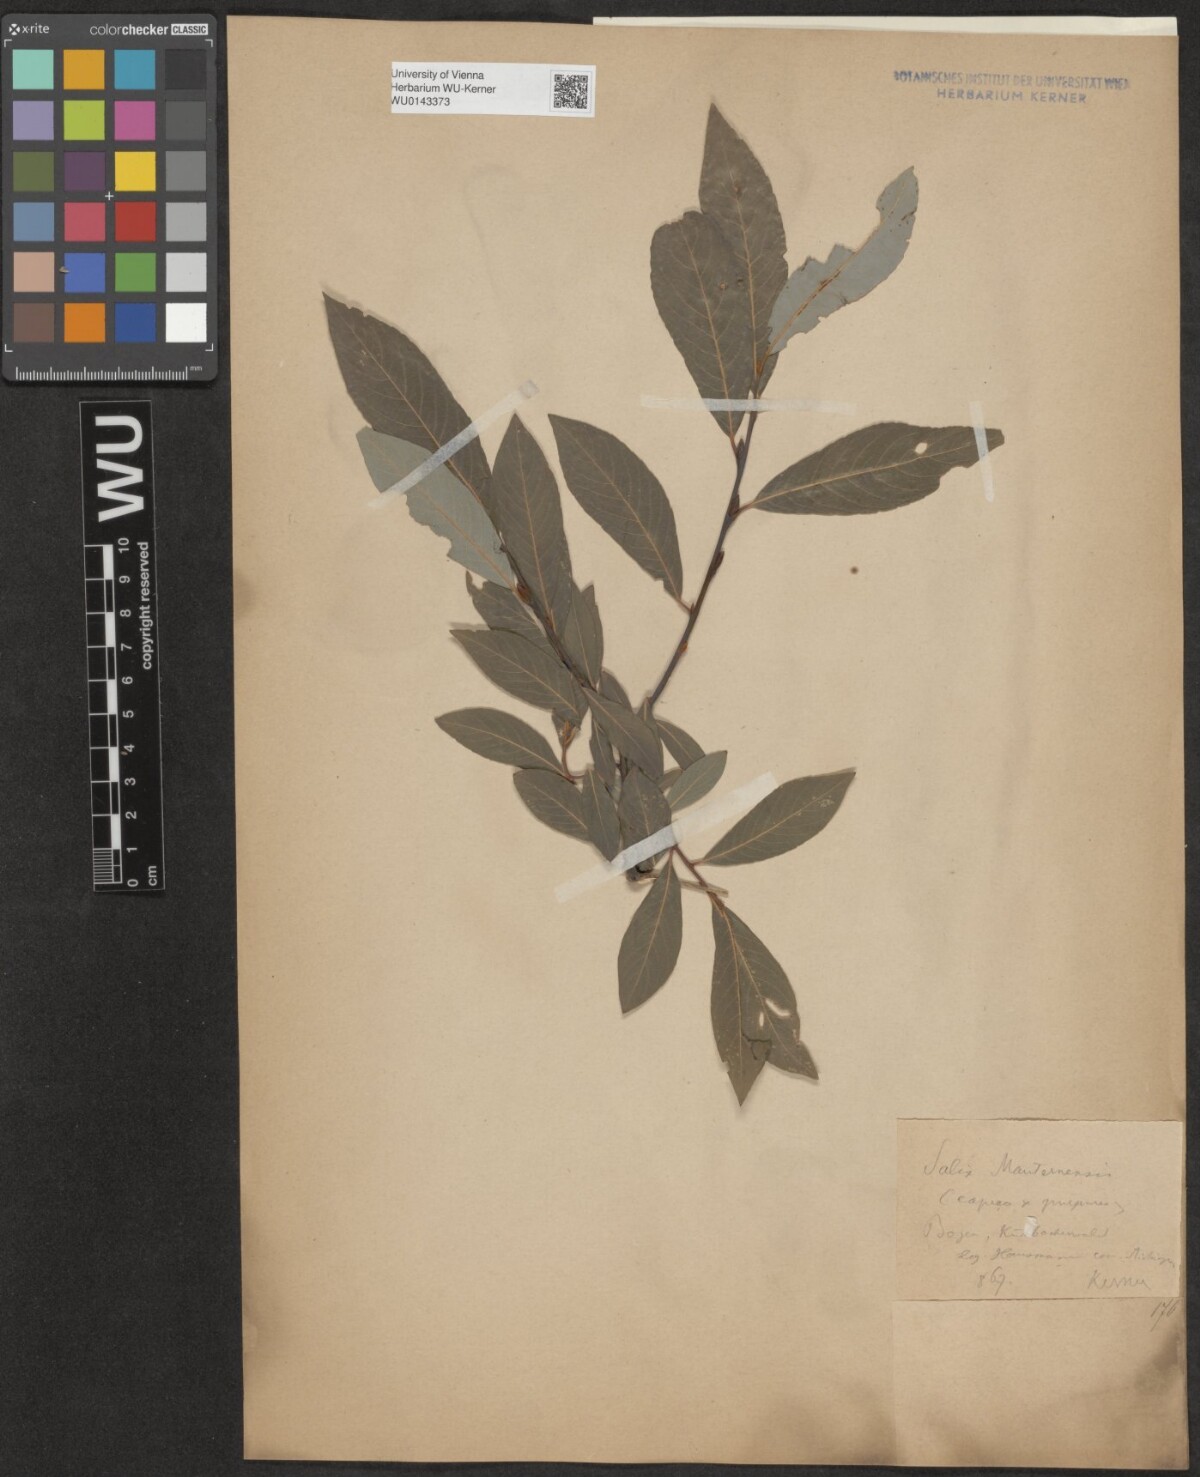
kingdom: Plantae
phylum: Tracheophyta
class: Magnoliopsida
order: Malpighiales
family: Salicaceae
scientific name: Salicaceae
